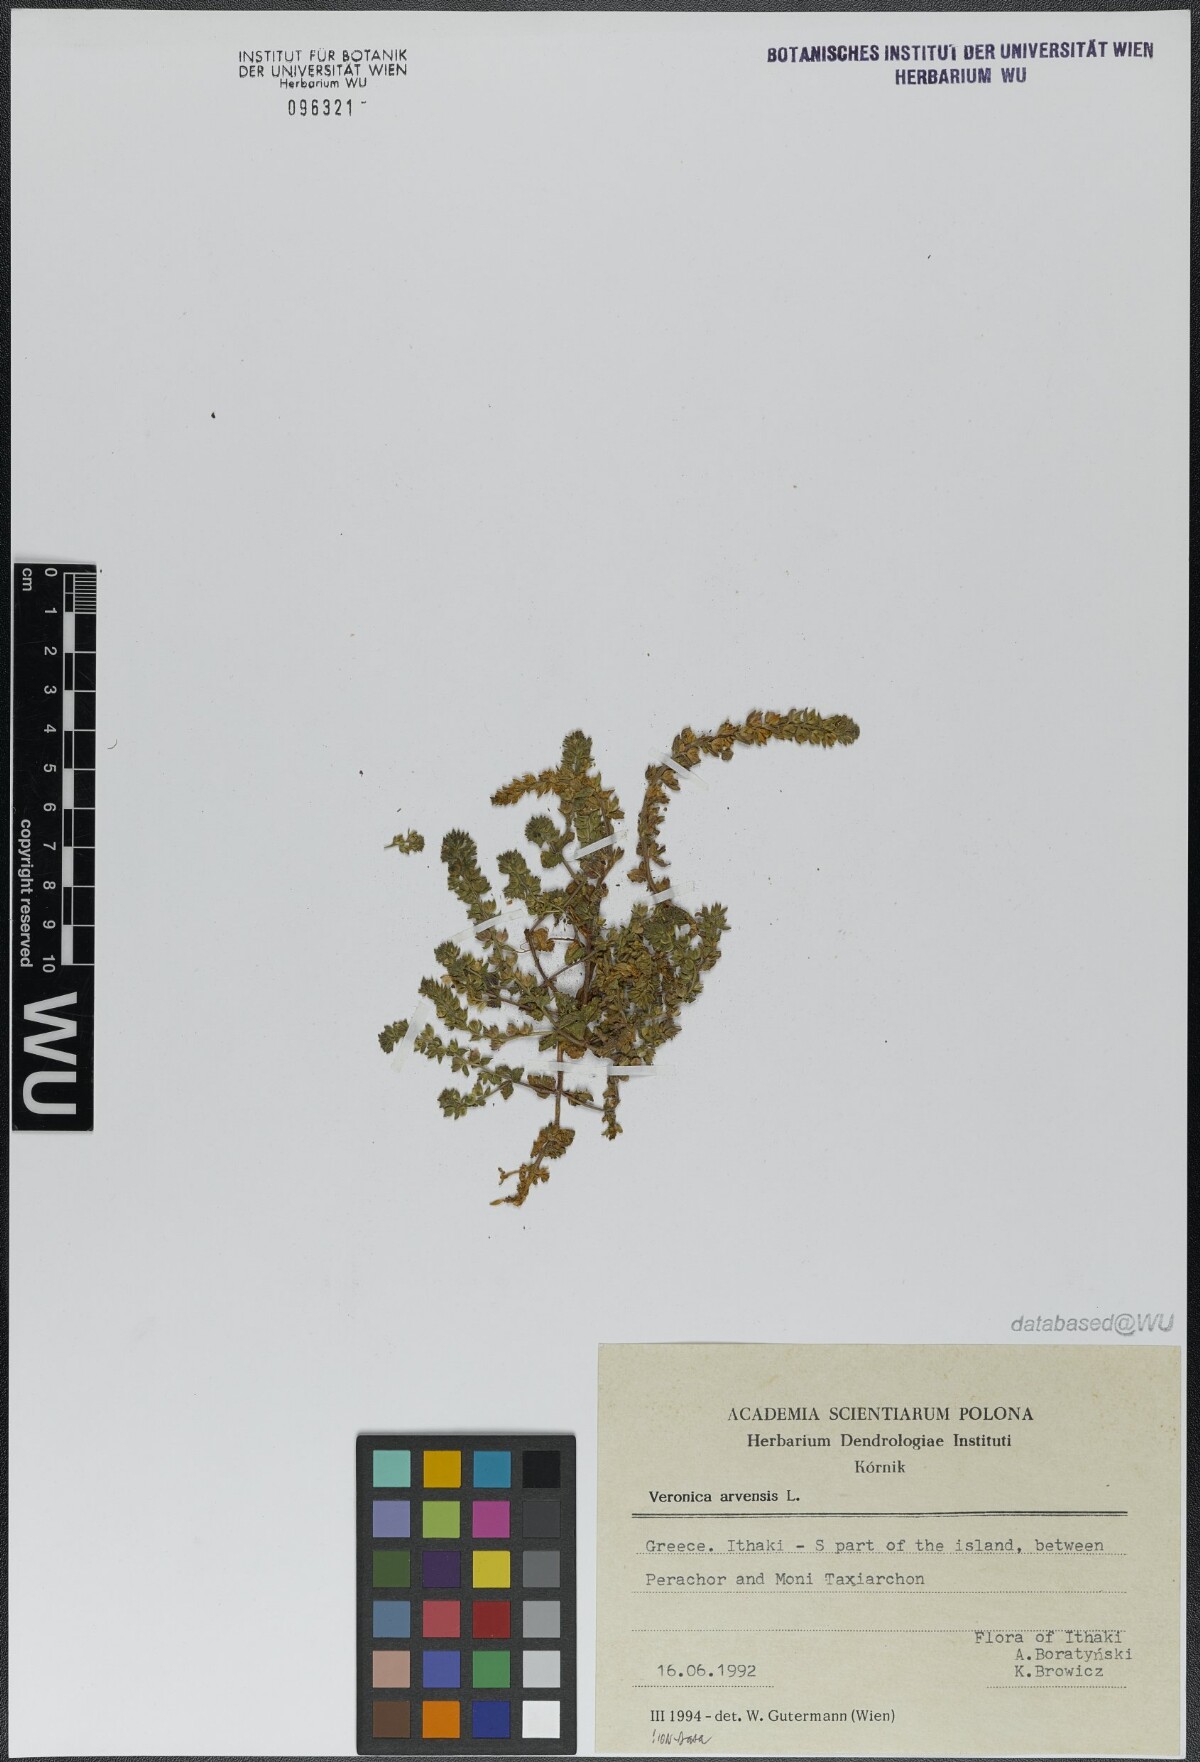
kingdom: Plantae
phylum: Tracheophyta
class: Magnoliopsida
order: Lamiales
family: Plantaginaceae
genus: Veronica
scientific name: Veronica arvensis
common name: Corn speedwell
